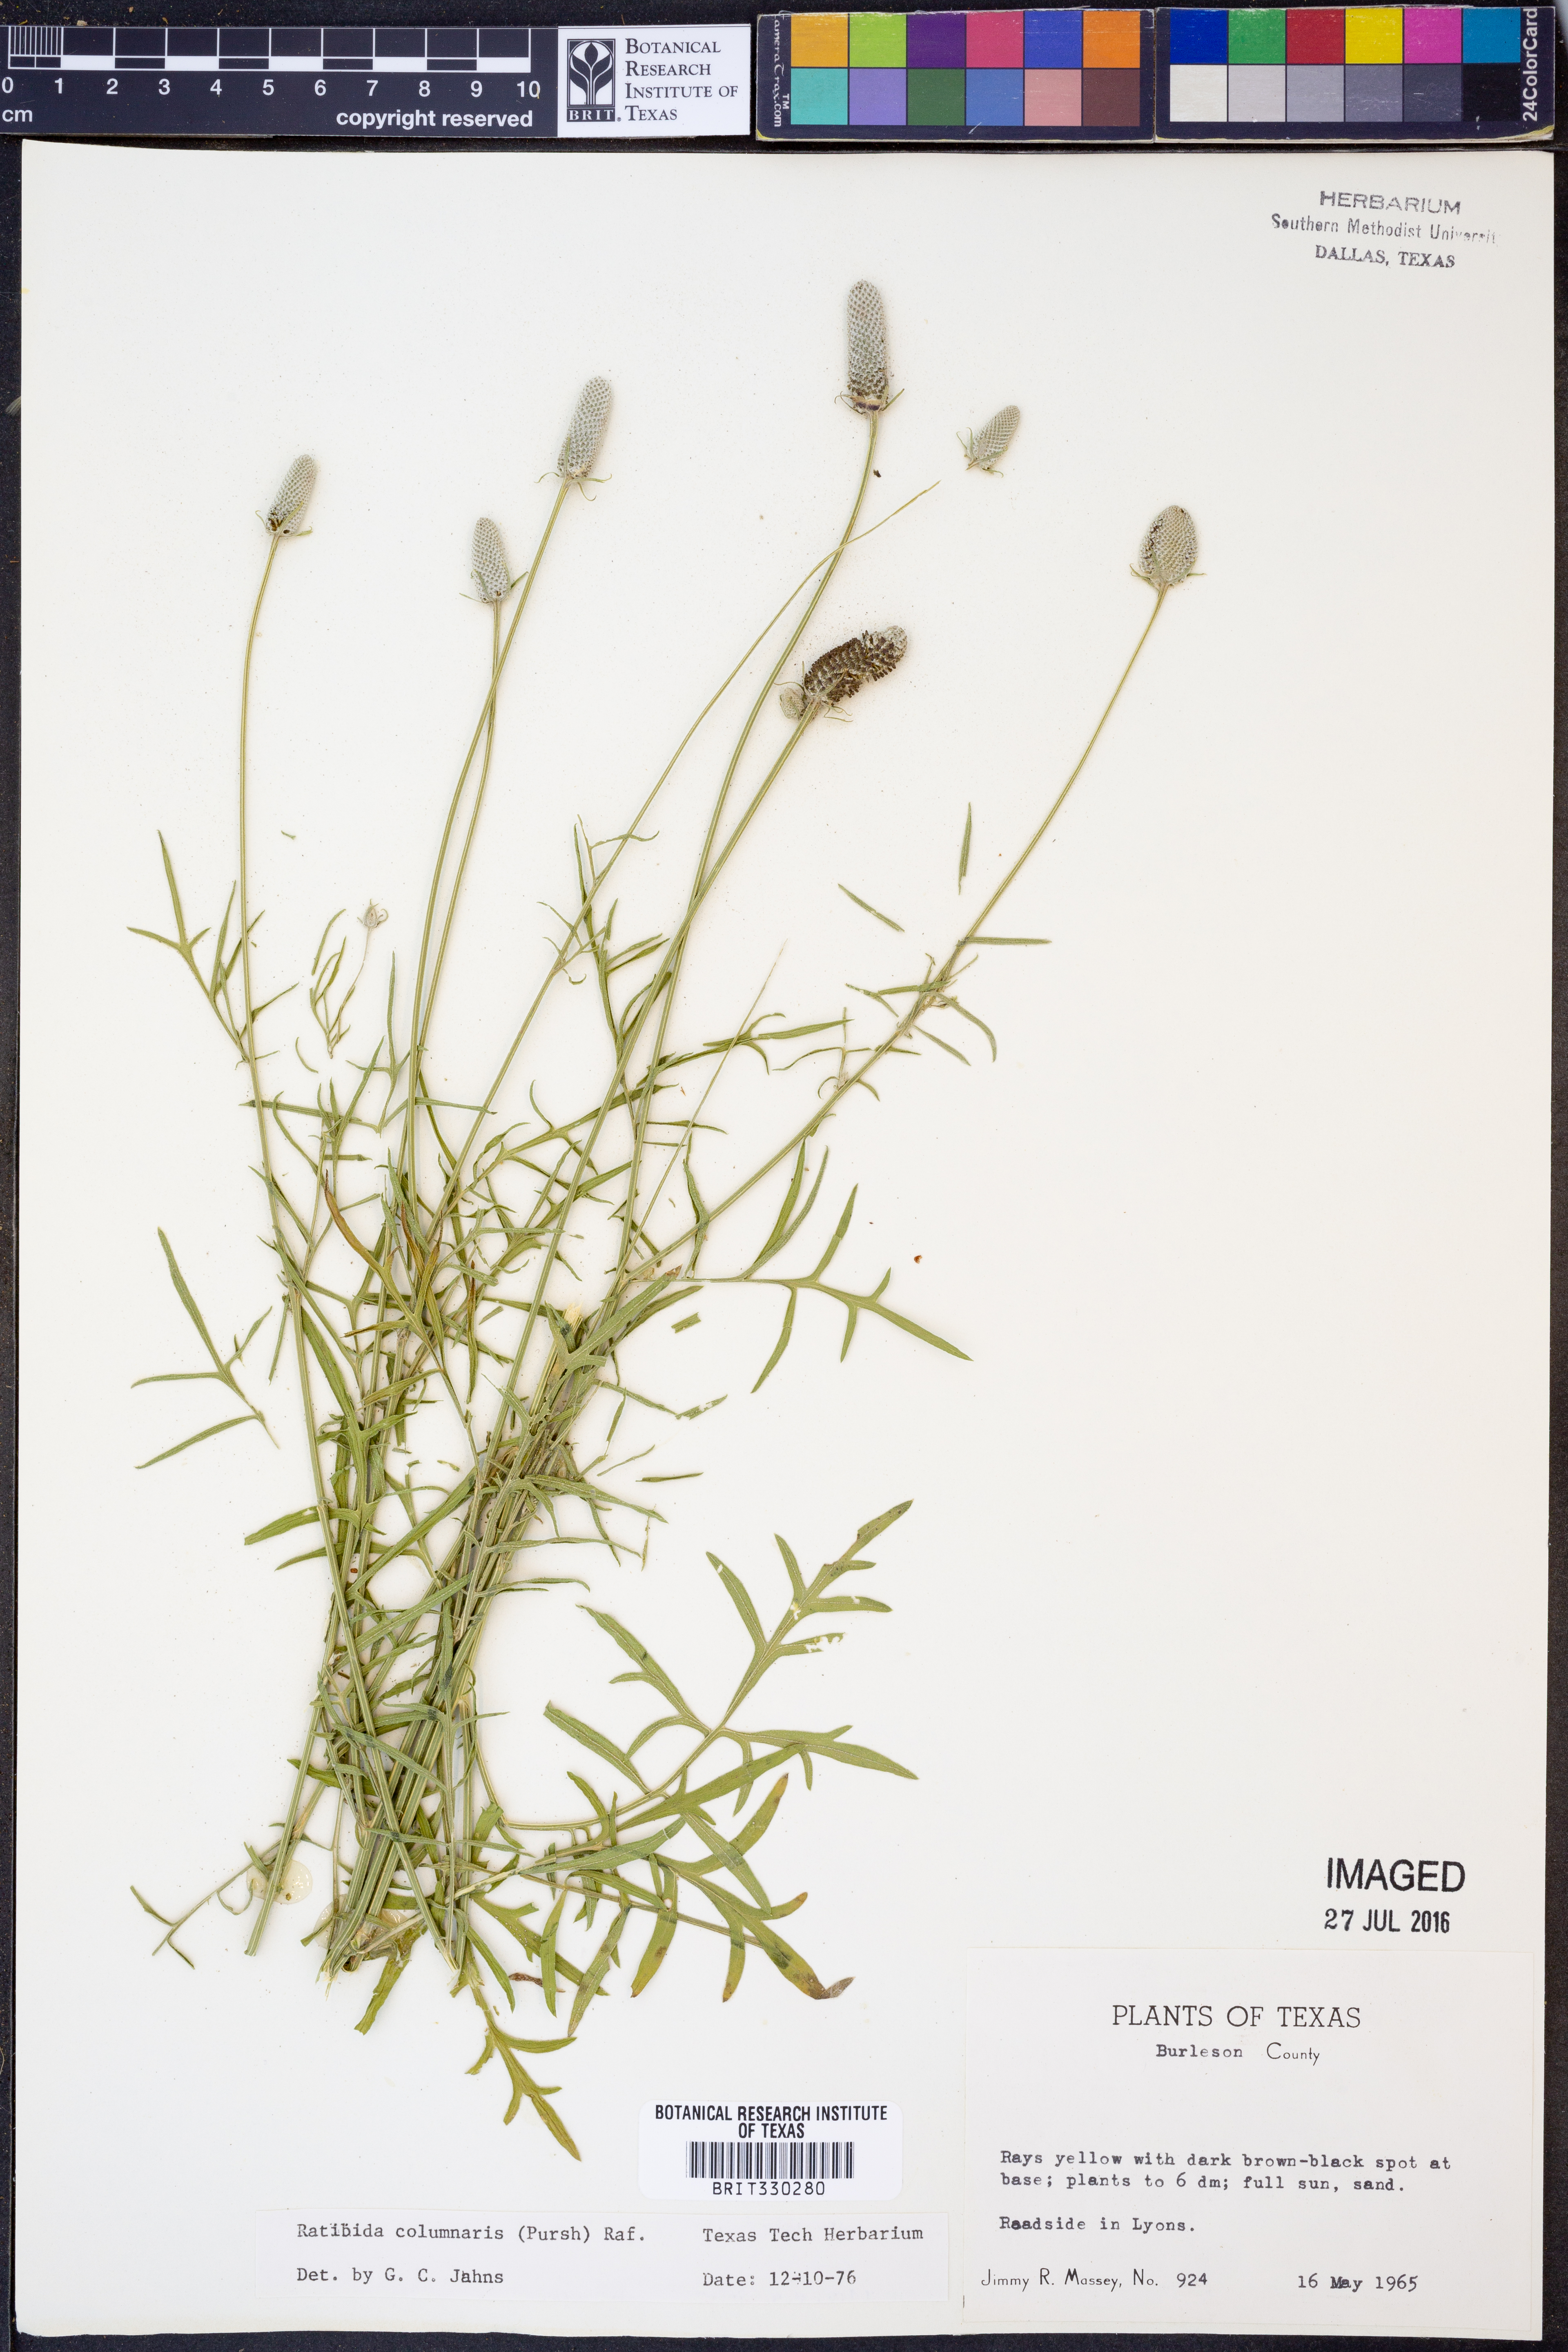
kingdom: Plantae
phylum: Tracheophyta
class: Magnoliopsida
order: Asterales
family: Asteraceae
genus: Ratibida
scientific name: Ratibida columnifera
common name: Prairie coneflower
